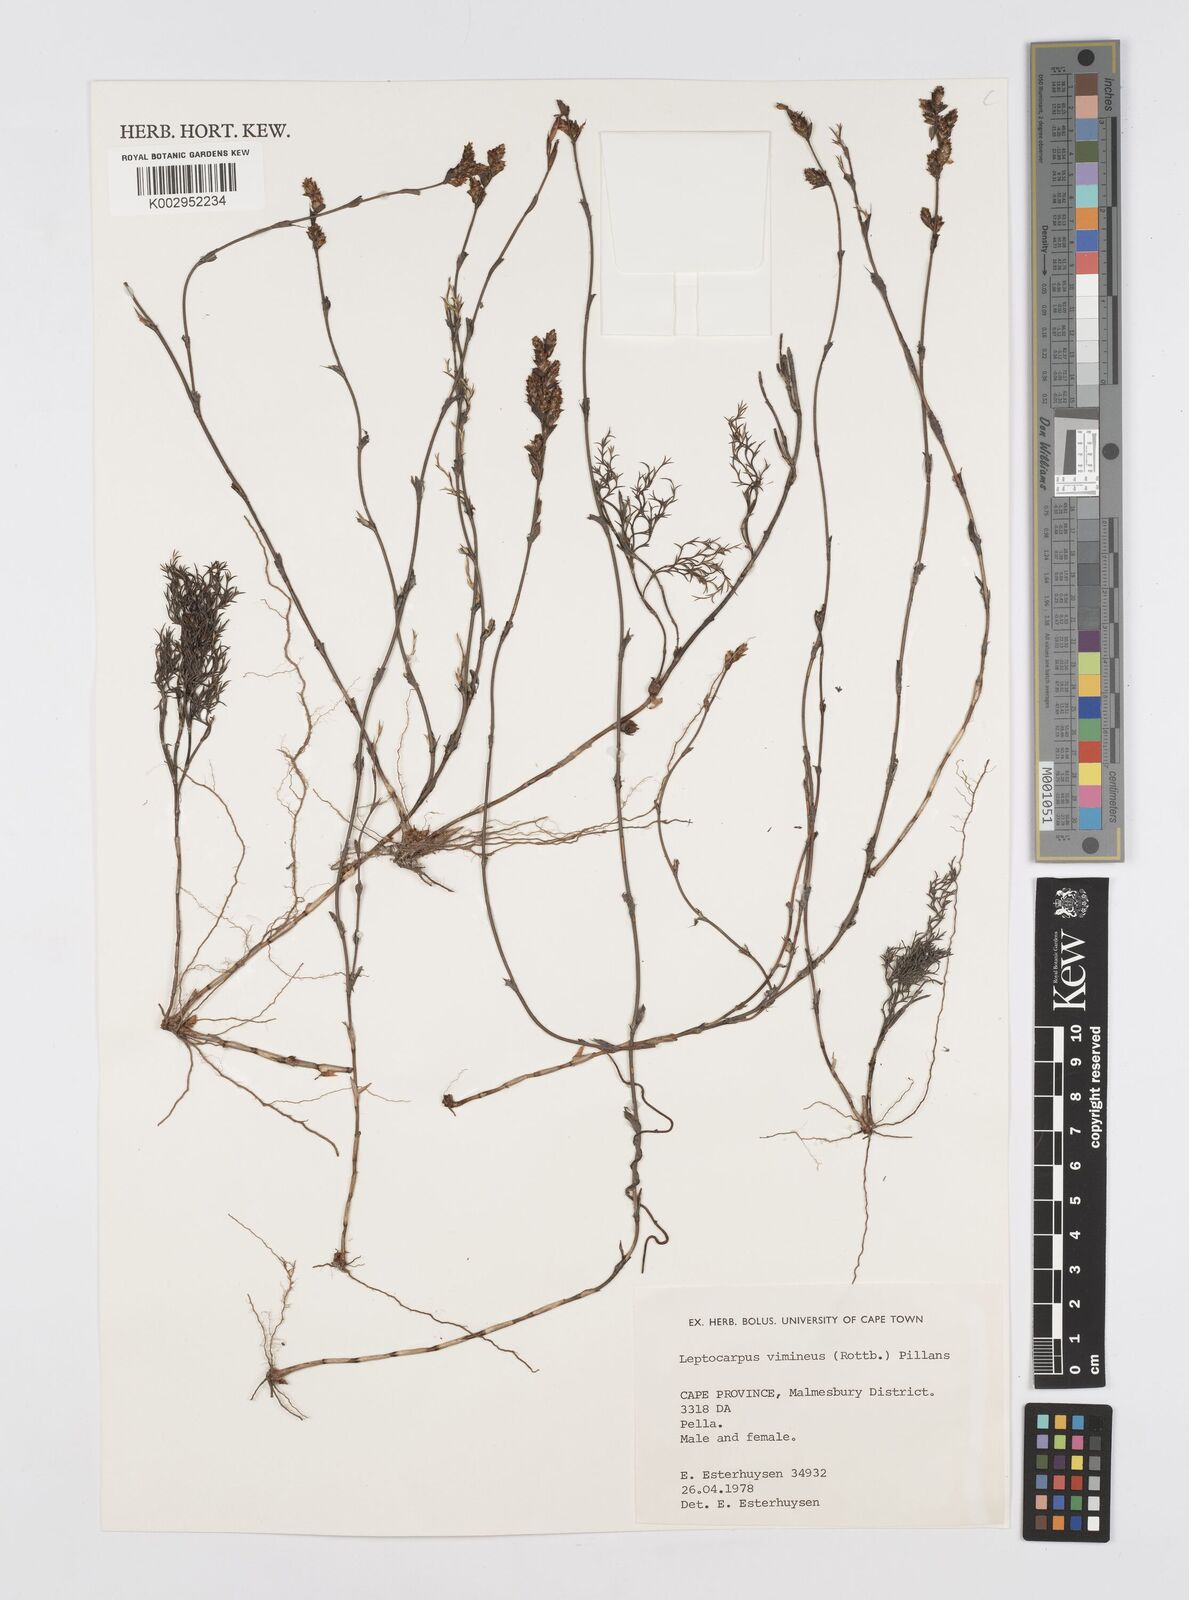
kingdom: Plantae
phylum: Tracheophyta
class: Liliopsida
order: Poales
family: Restionaceae
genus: Restio
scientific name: Restio vimineus
